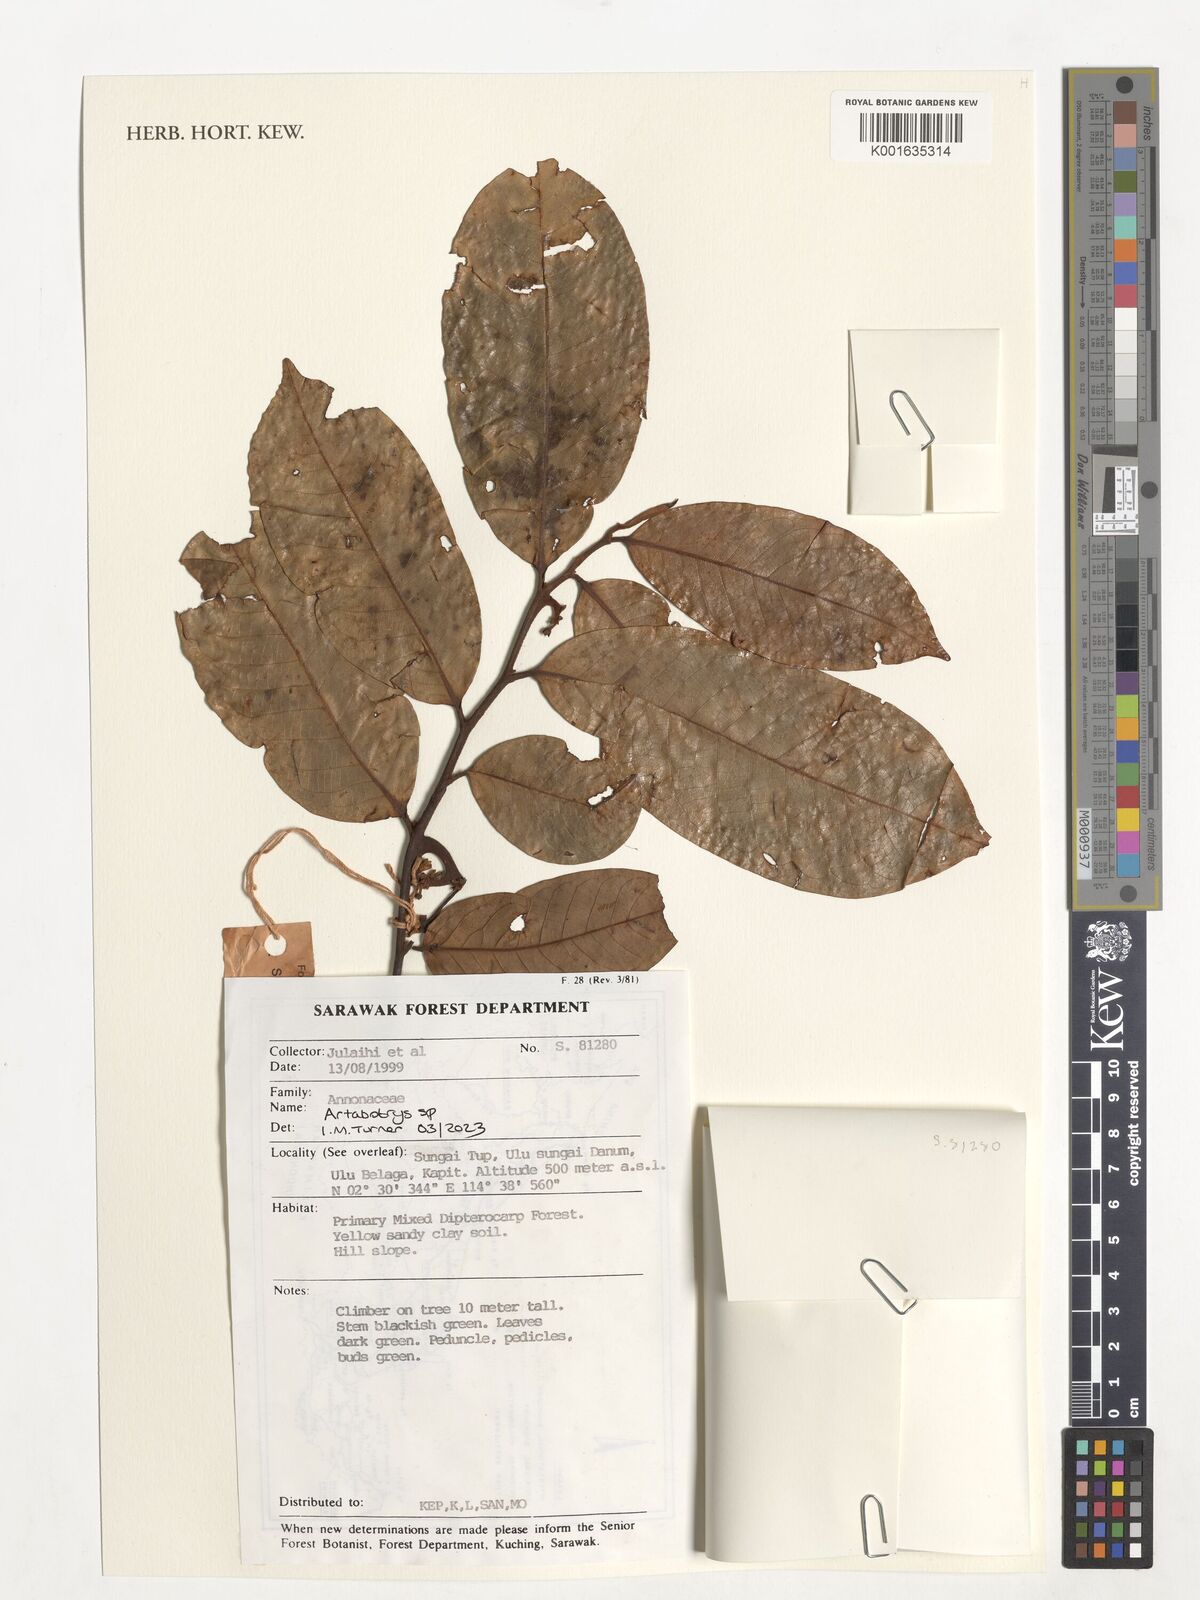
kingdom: Plantae
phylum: Tracheophyta
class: Magnoliopsida
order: Magnoliales
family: Annonaceae
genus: Artabotrys
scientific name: Artabotrys
